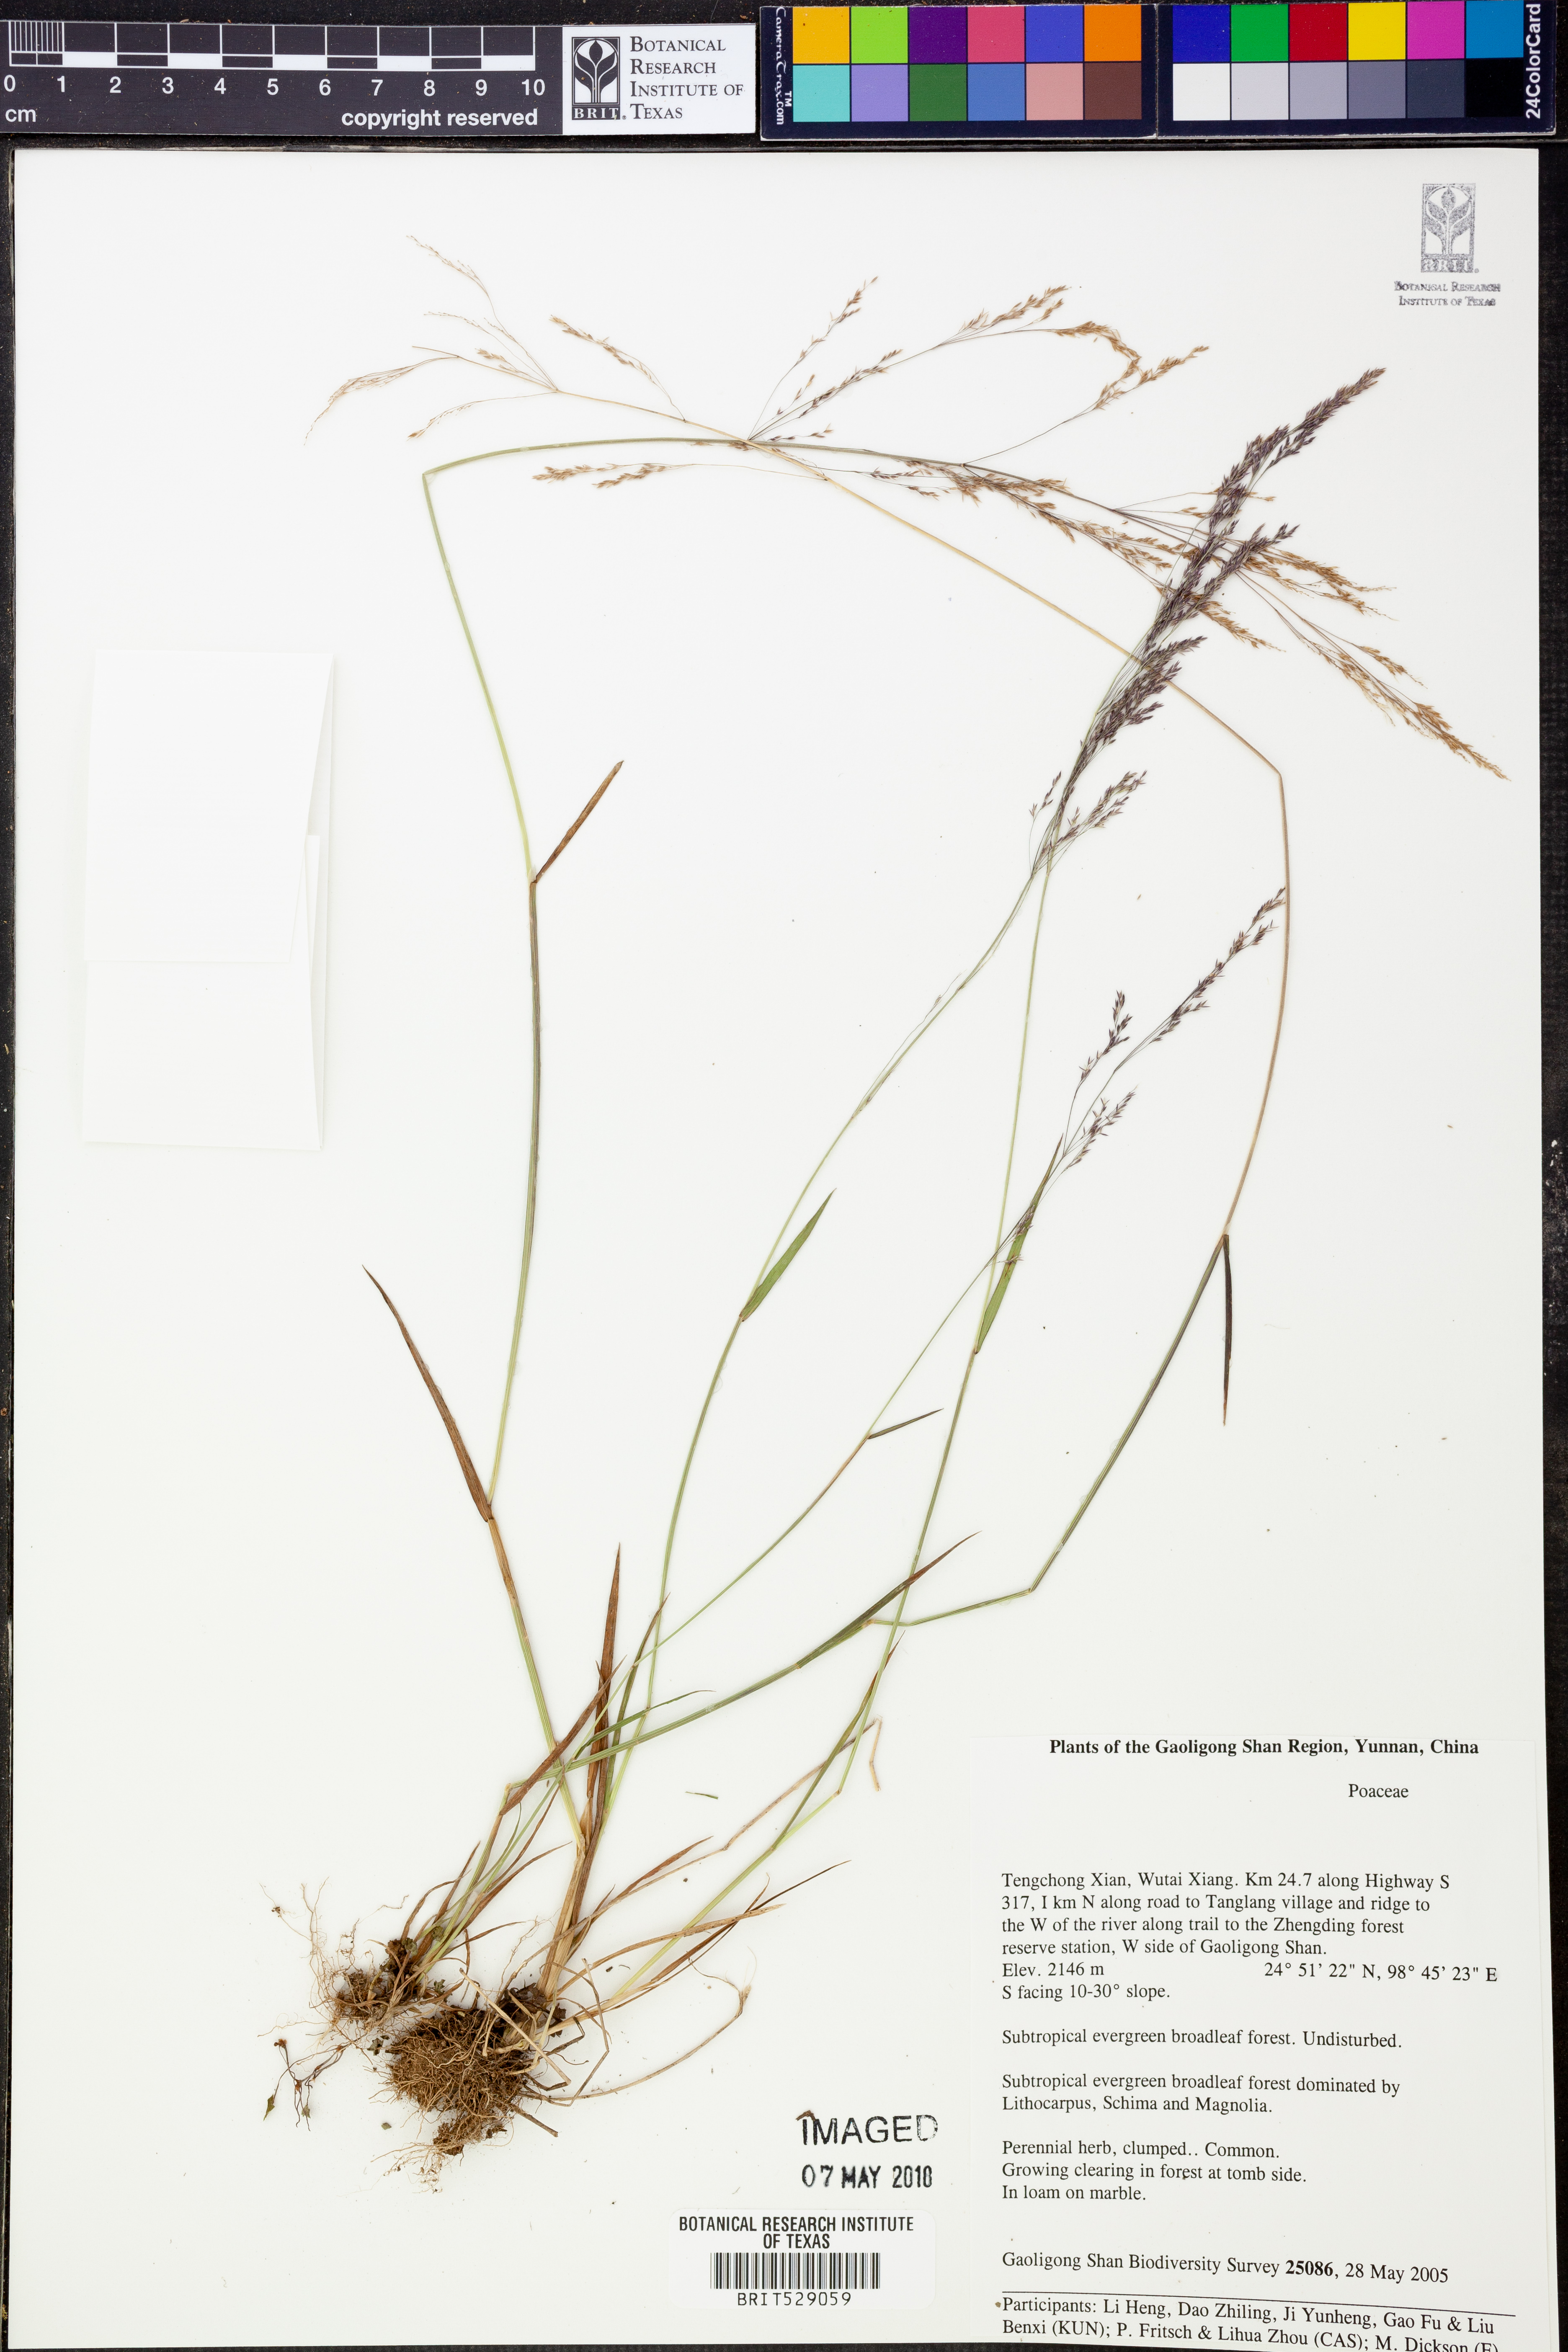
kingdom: Plantae
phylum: Tracheophyta
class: Liliopsida
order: Poales
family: Poaceae
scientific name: Poaceae
